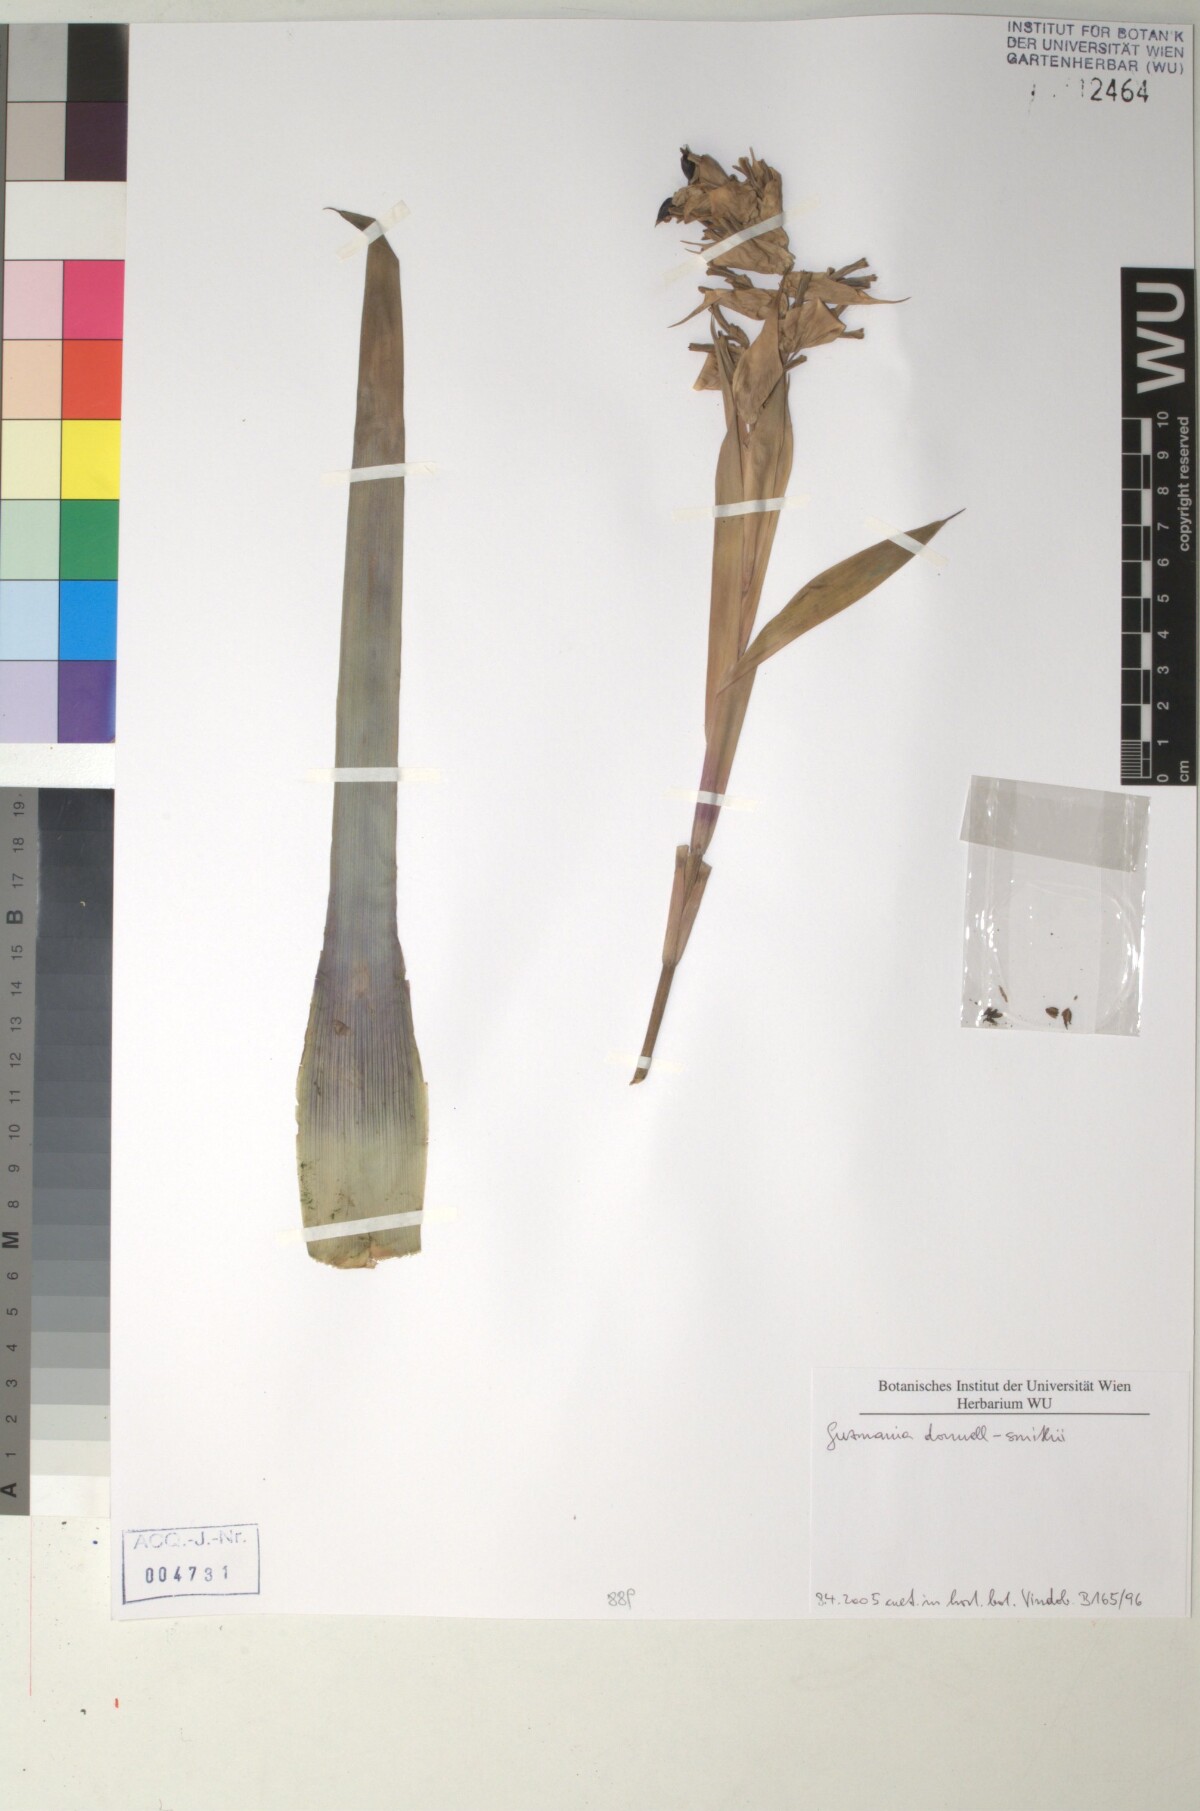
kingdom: Plantae
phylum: Tracheophyta
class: Liliopsida
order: Poales
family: Bromeliaceae
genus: Guzmania
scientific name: Guzmania donnellsmithii
